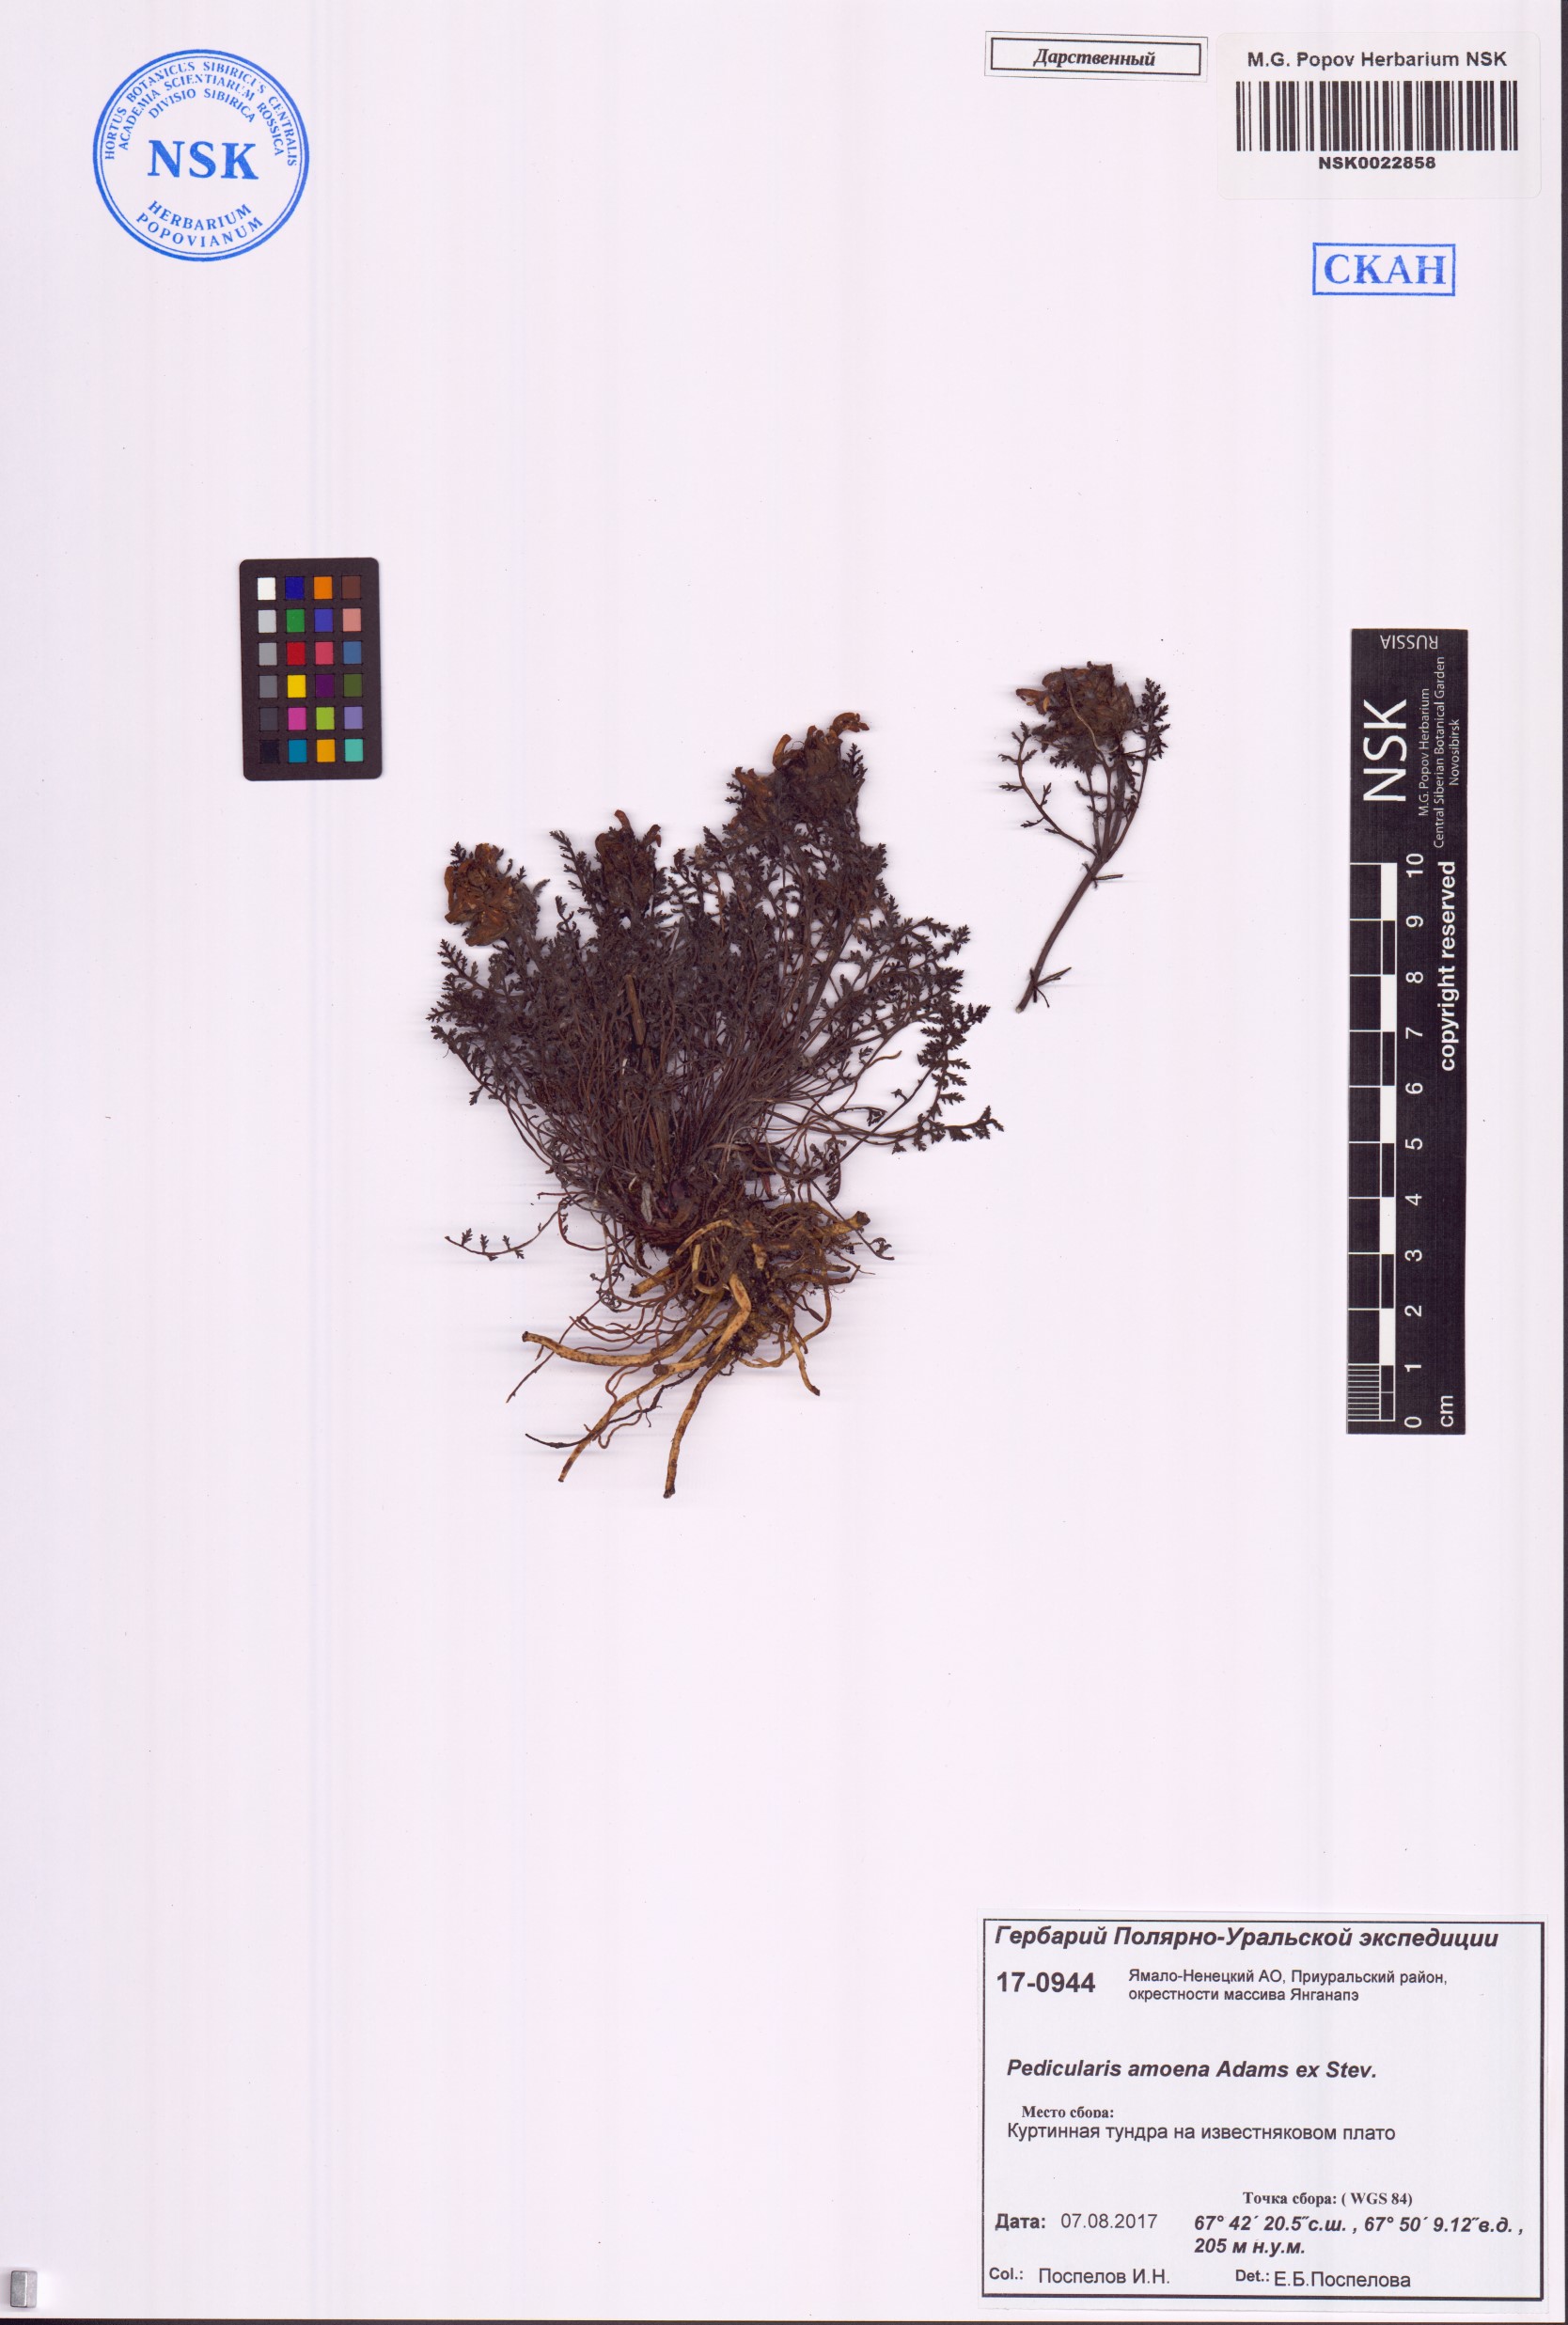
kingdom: Plantae
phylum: Tracheophyta
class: Magnoliopsida
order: Lamiales
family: Orobanchaceae
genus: Pedicularis
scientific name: Pedicularis amoena
